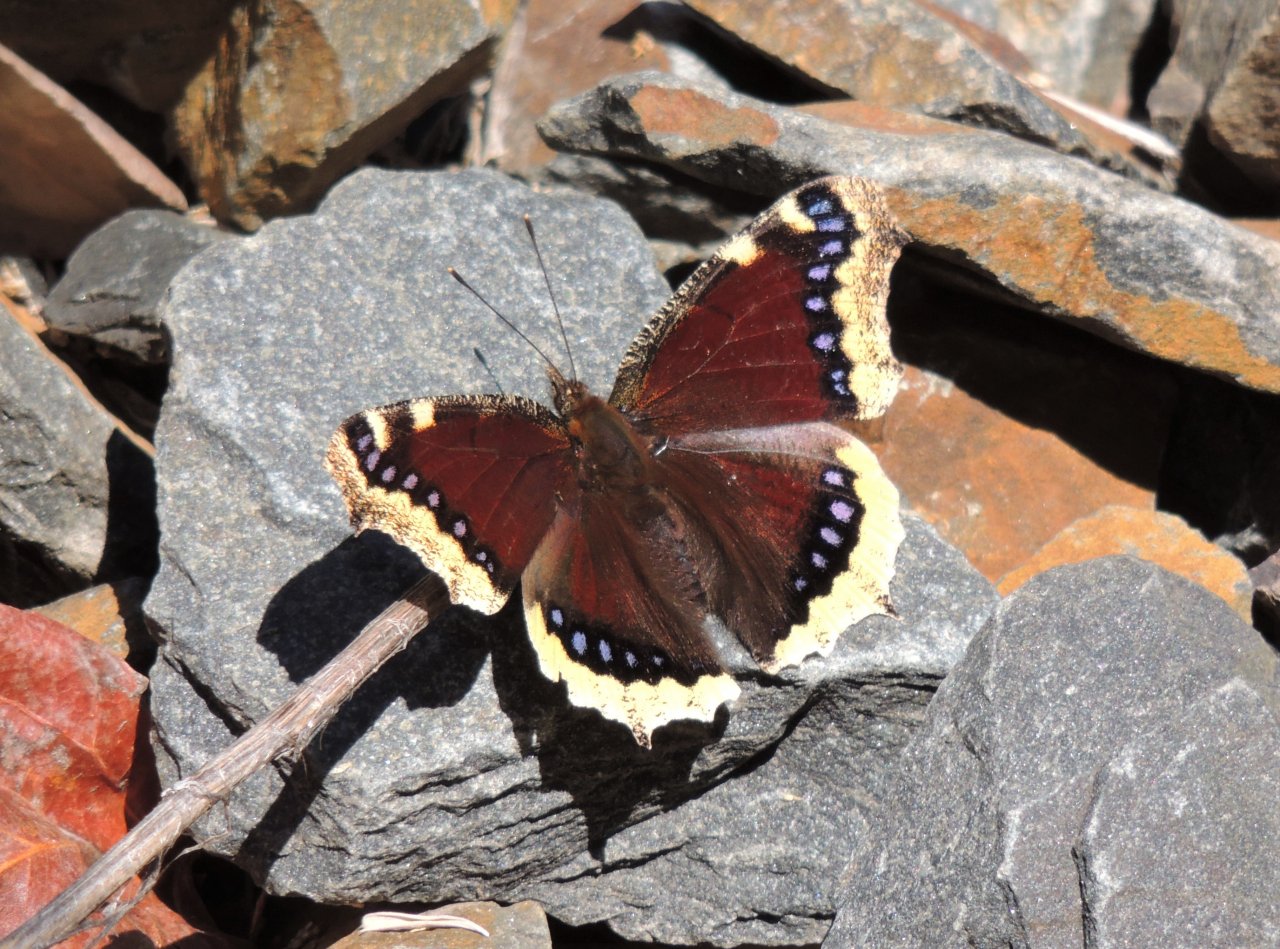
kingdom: Animalia
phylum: Arthropoda
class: Insecta
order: Lepidoptera
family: Nymphalidae
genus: Nymphalis
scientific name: Nymphalis antiopa
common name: Mourning Cloak
